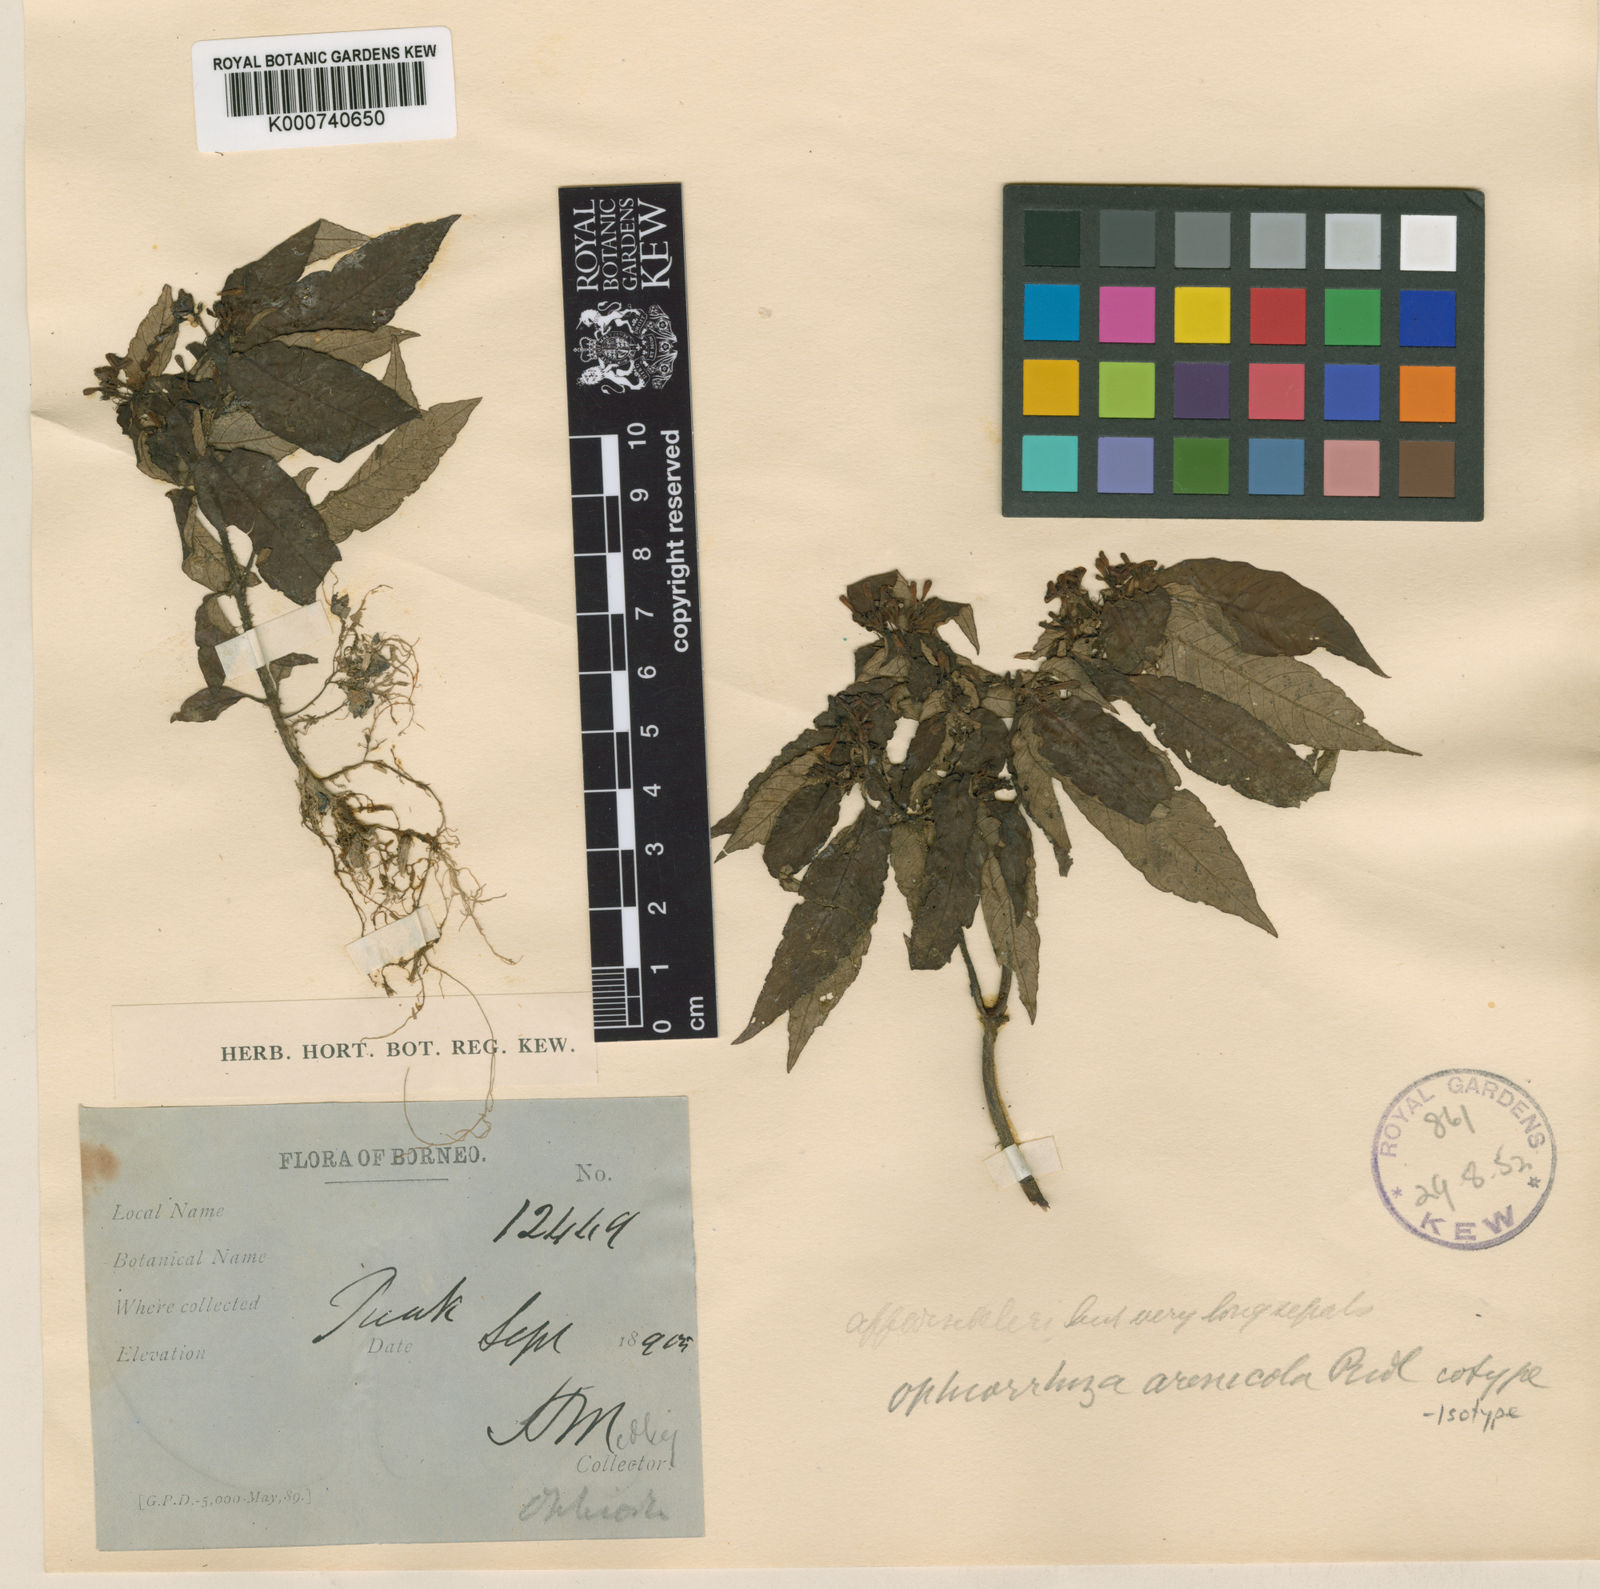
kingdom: Plantae
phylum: Tracheophyta
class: Magnoliopsida
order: Gentianales
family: Rubiaceae
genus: Ophiorrhiza
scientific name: Ophiorrhiza arenicola
